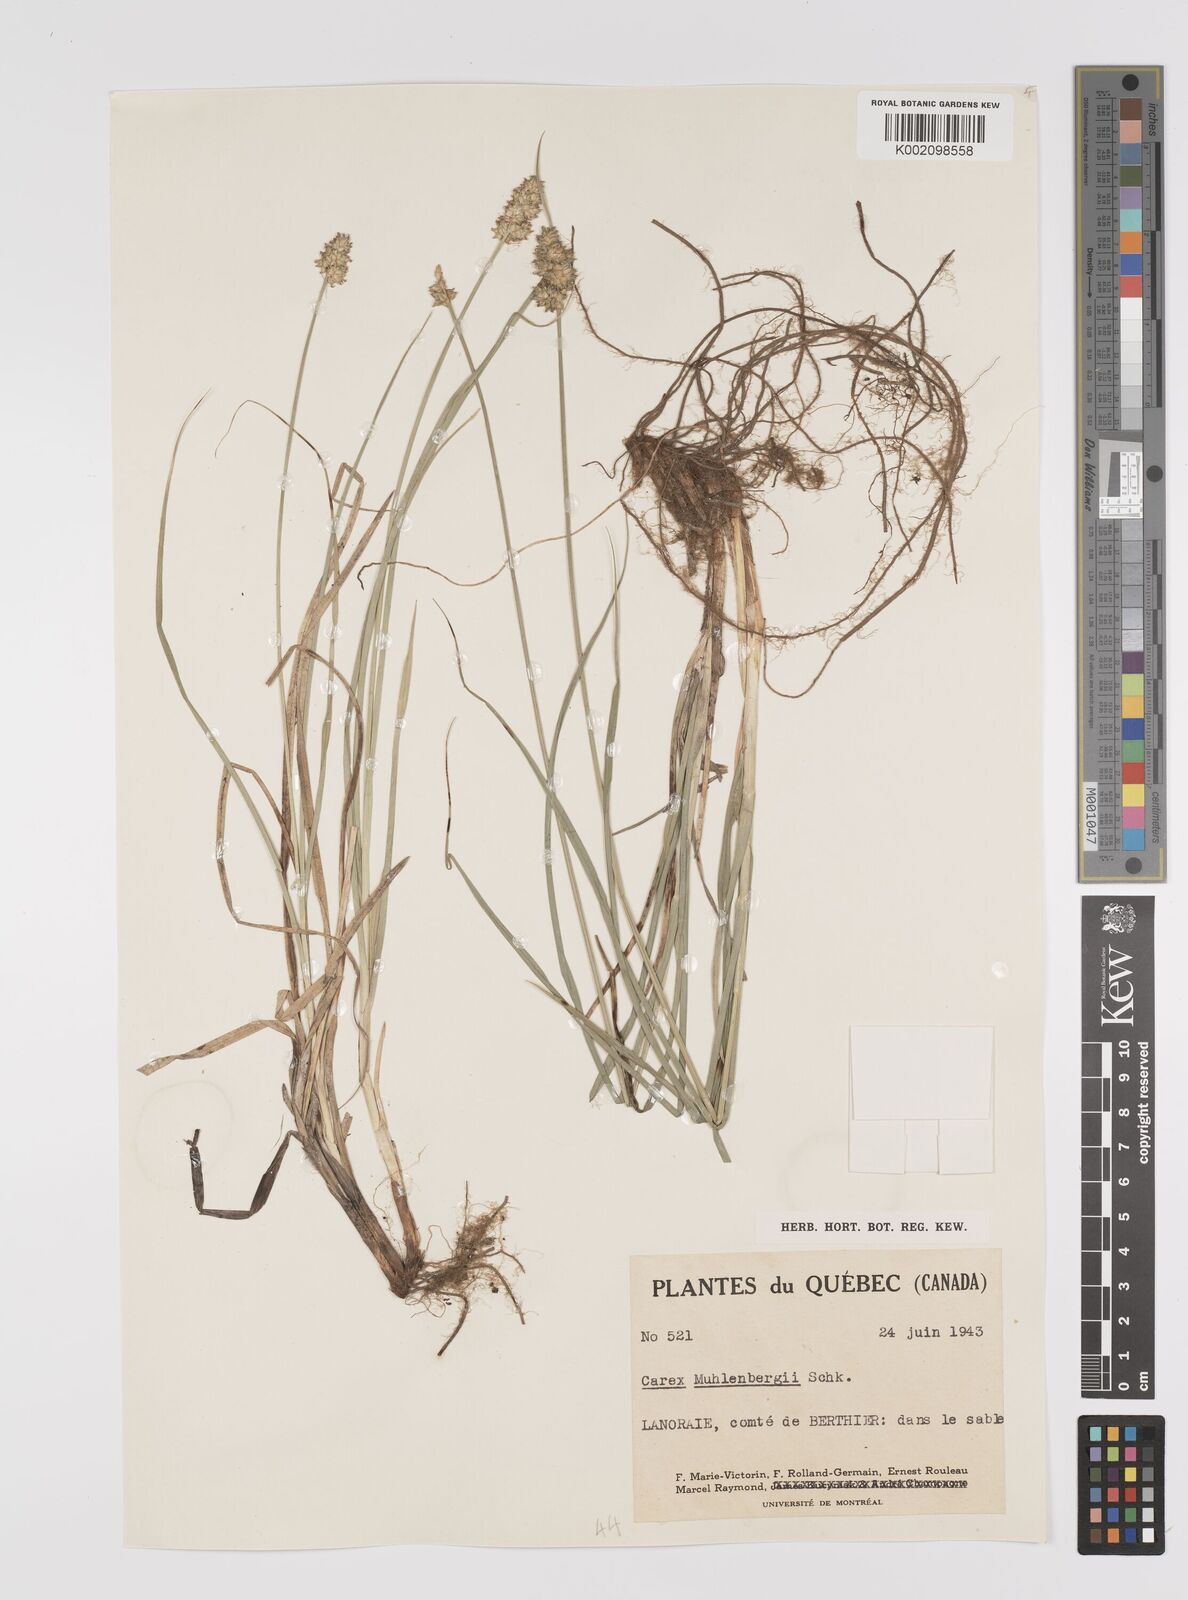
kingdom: Plantae
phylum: Tracheophyta
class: Liliopsida
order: Poales
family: Cyperaceae
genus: Carex
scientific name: Carex vulpinoidea
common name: American fox-sedge
